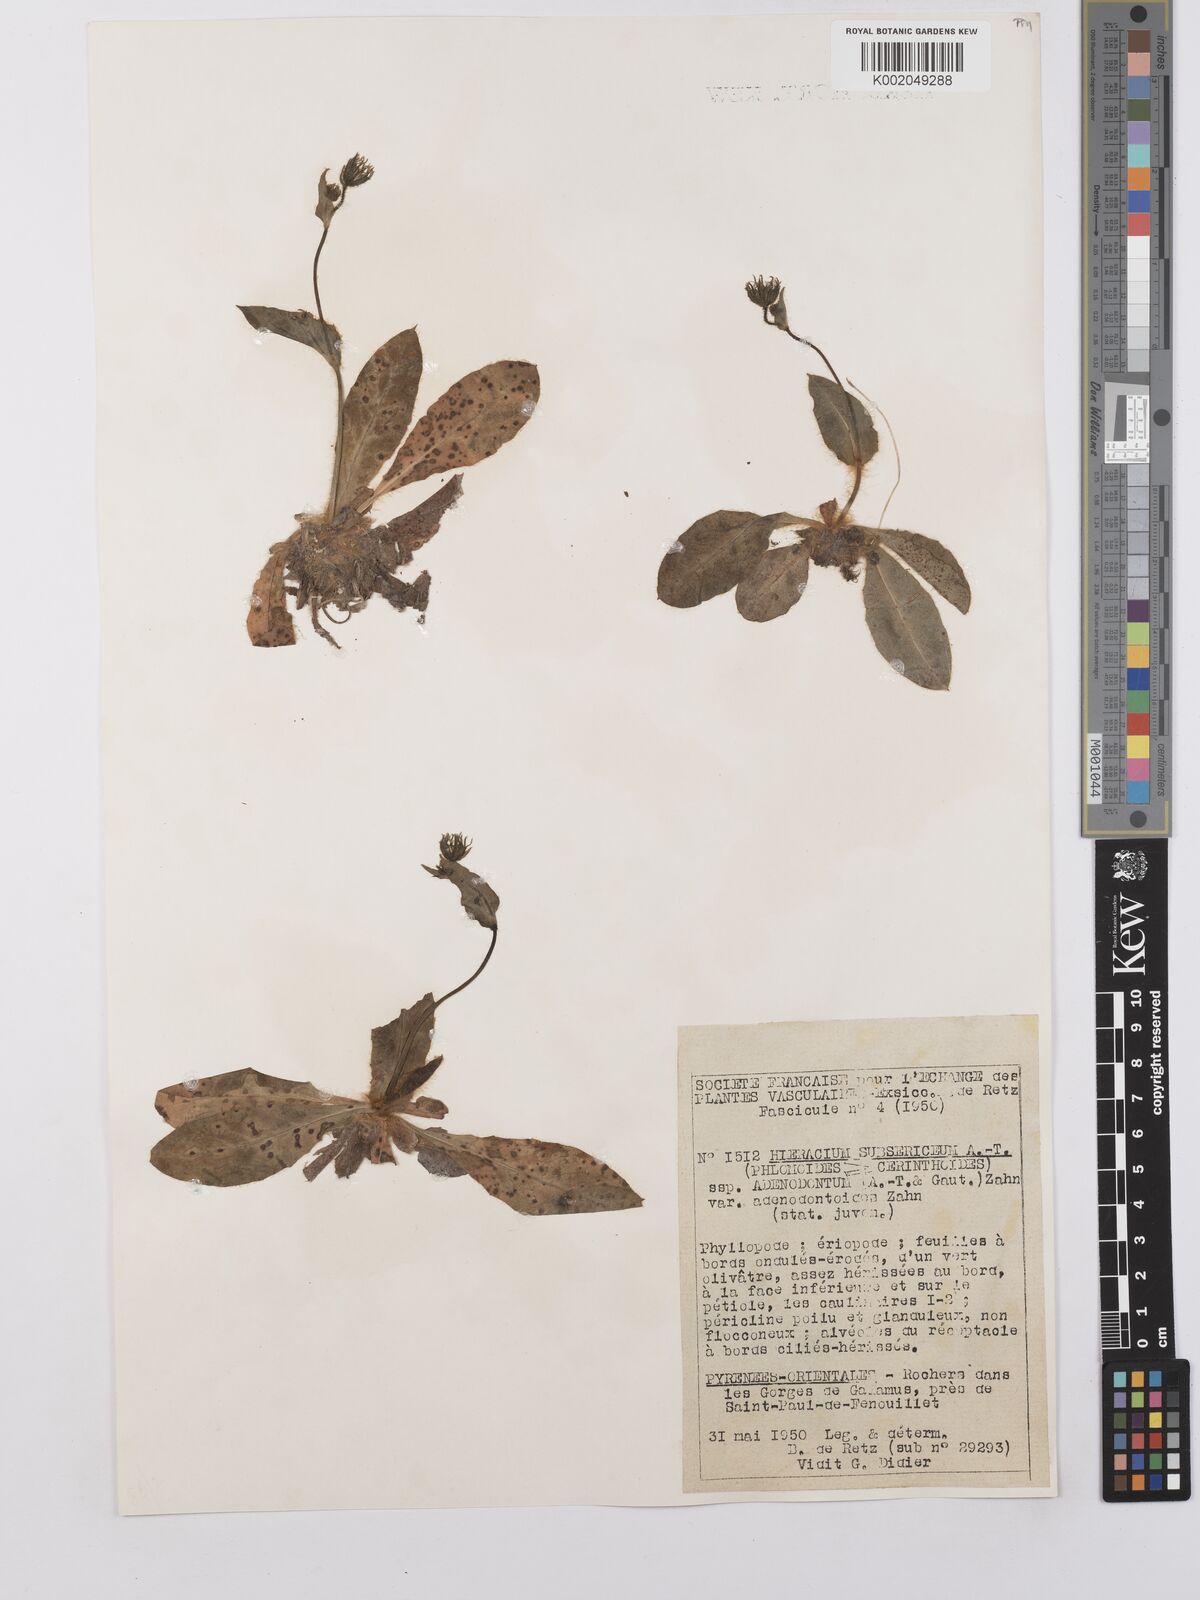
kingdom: Plantae
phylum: Tracheophyta
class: Magnoliopsida
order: Asterales
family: Asteraceae
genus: Hieracium
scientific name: Hieracium adenodontum
